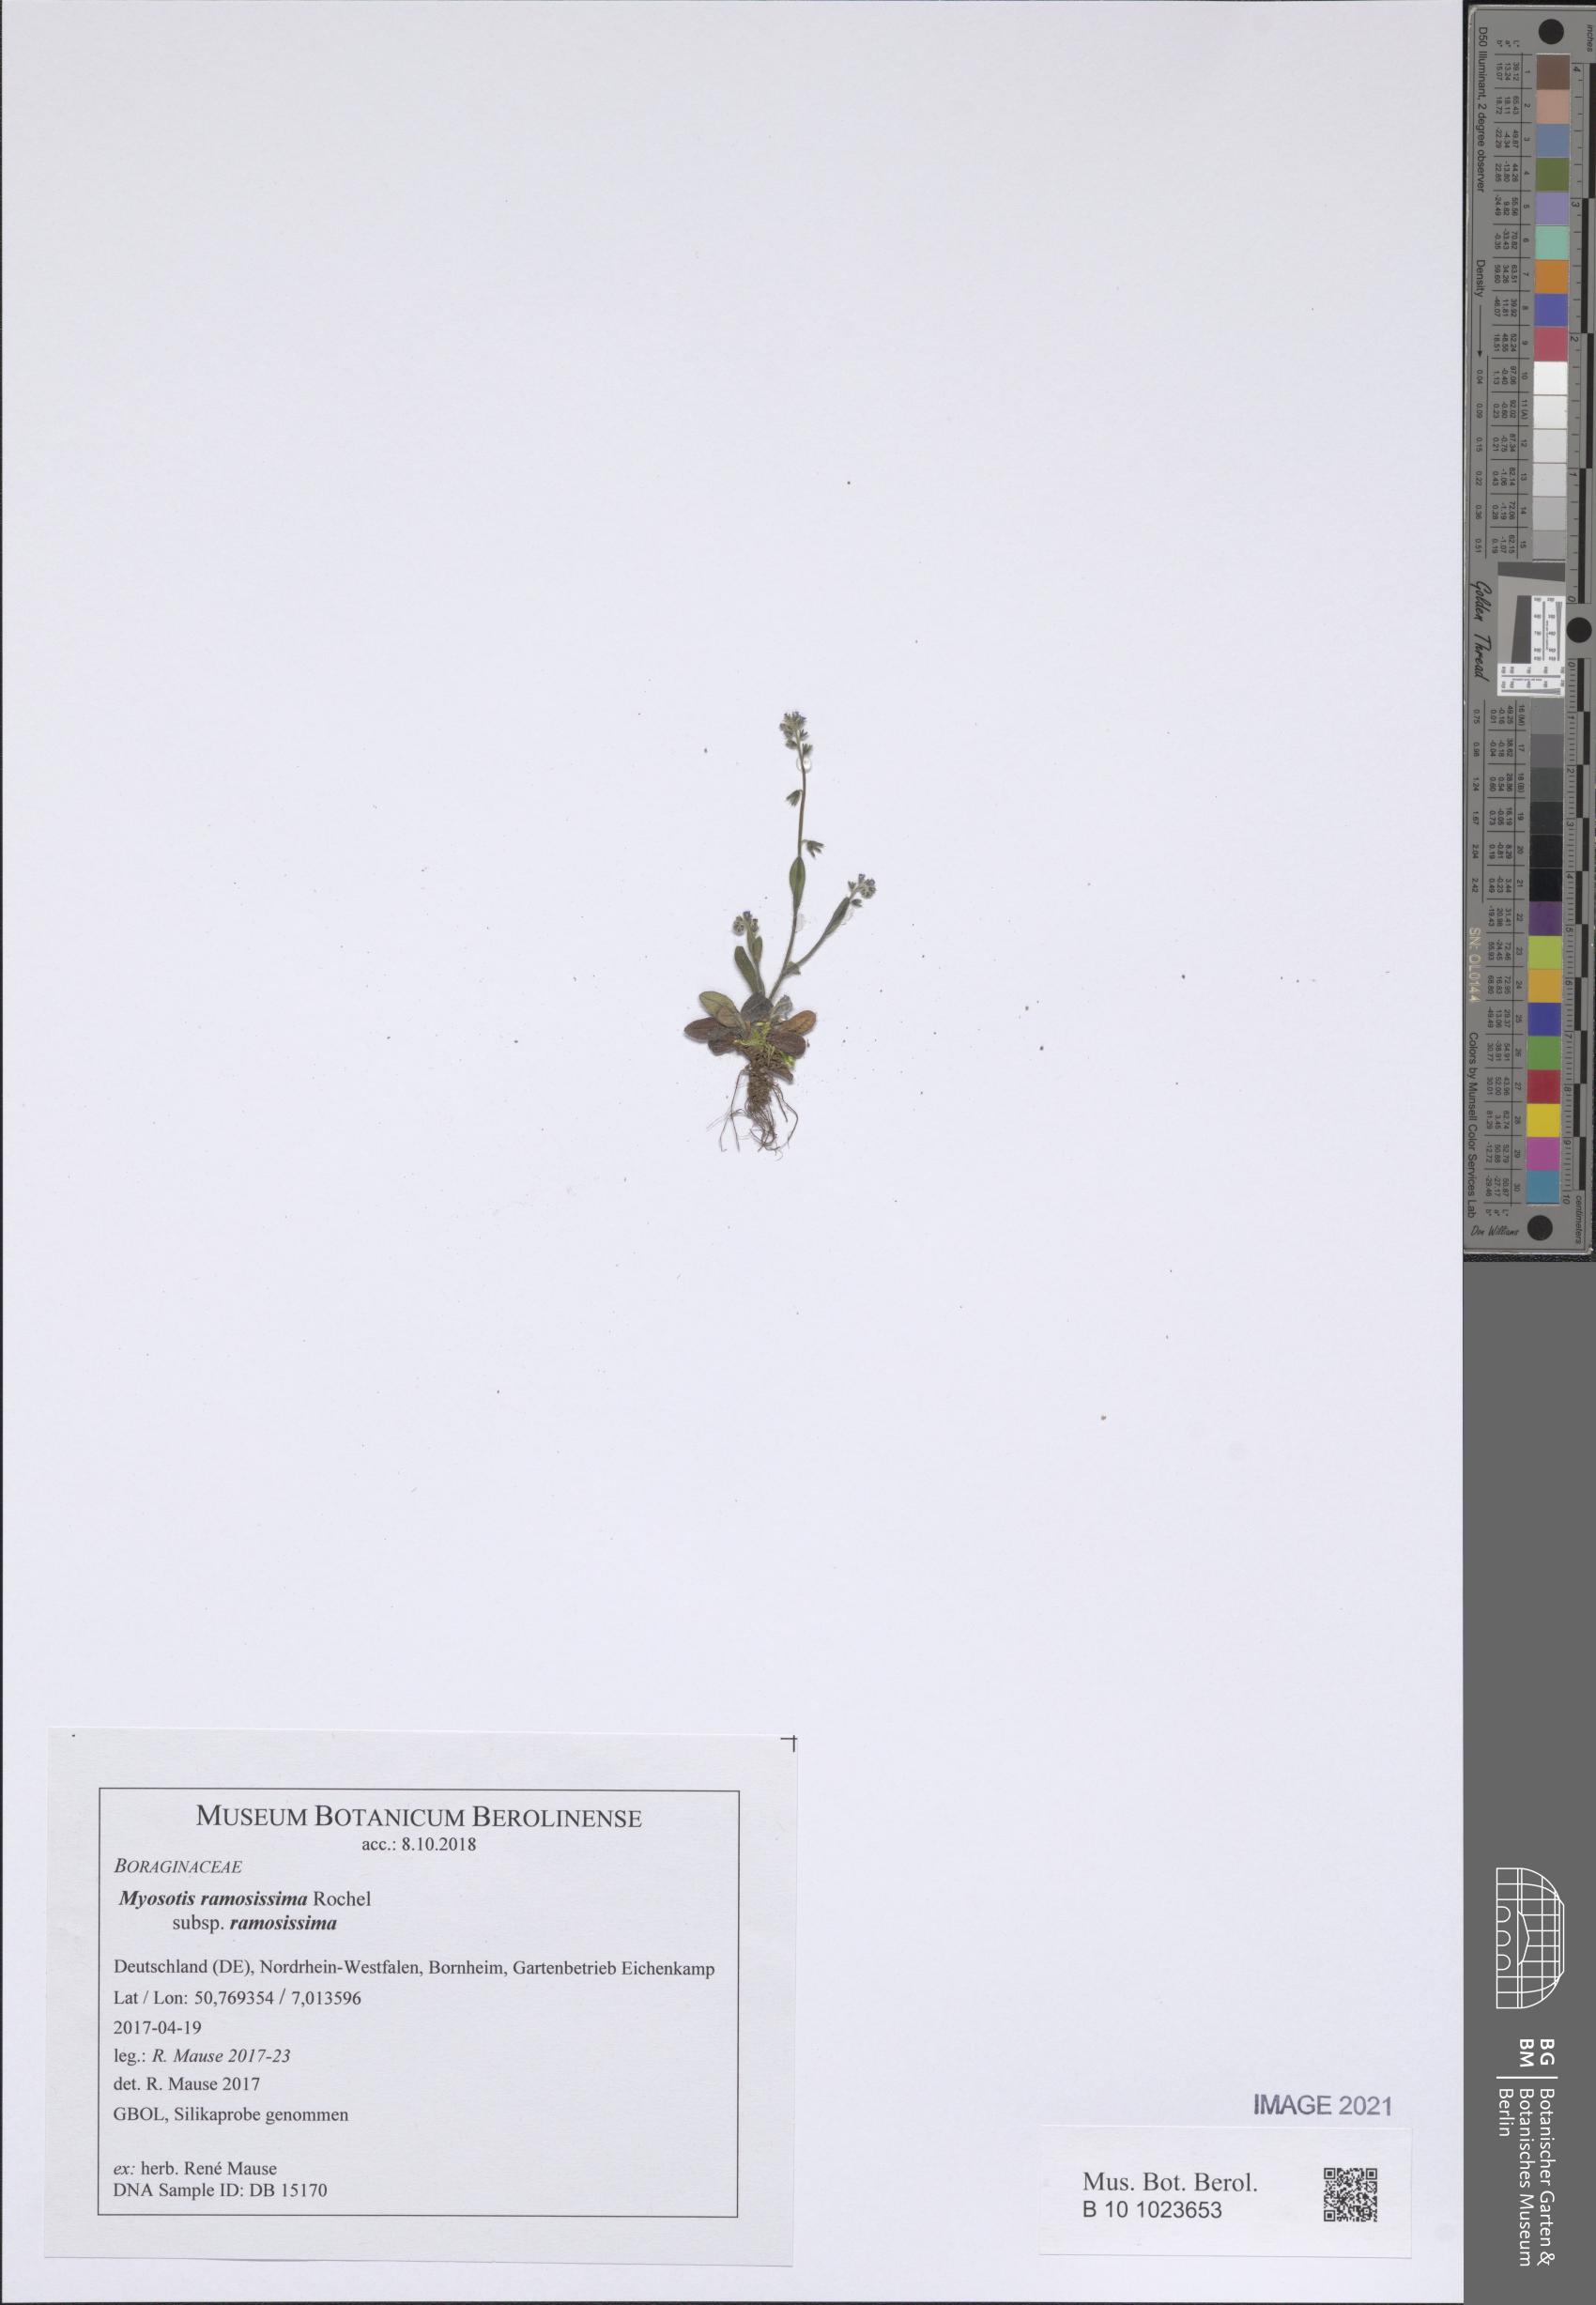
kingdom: Plantae
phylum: Tracheophyta
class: Magnoliopsida
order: Boraginales
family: Boraginaceae
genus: Myosotis
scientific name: Myosotis ramosissima
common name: Early forget-me-not
